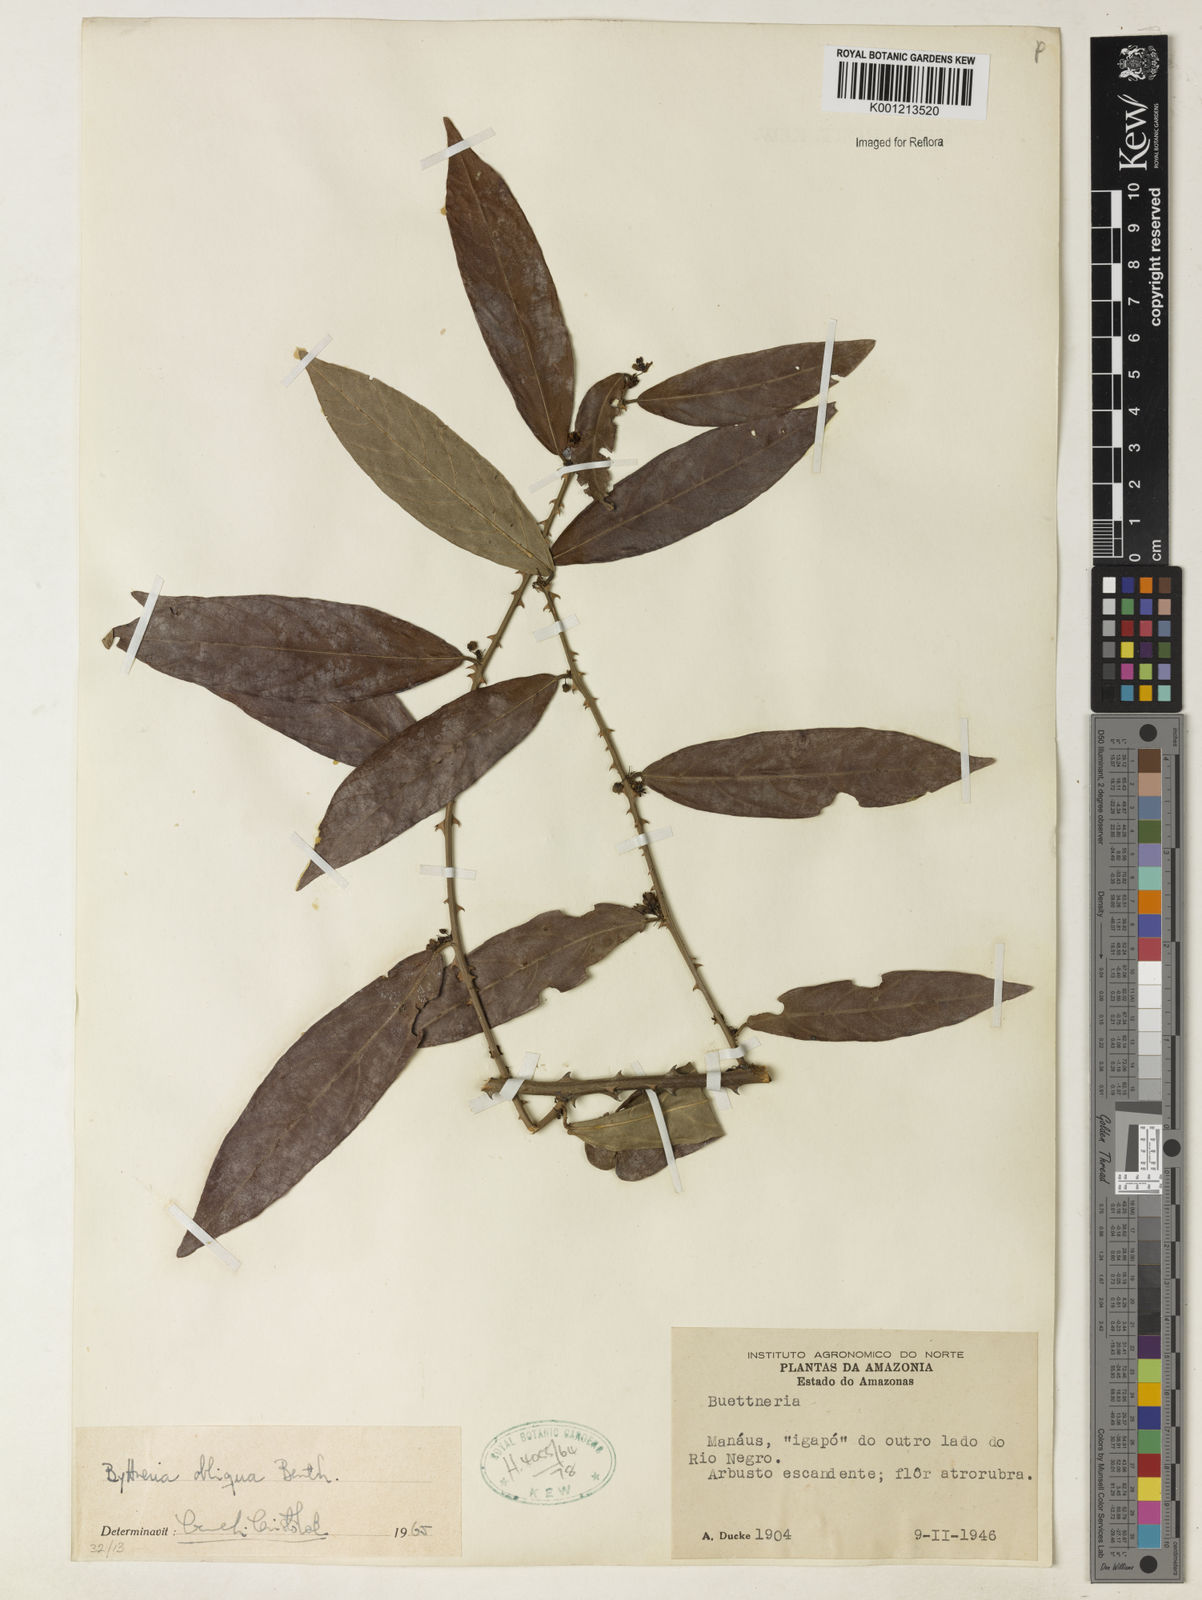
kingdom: Plantae
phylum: Tracheophyta
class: Magnoliopsida
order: Malvales
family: Malvaceae
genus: Byttneria
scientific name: Byttneria obliqua
